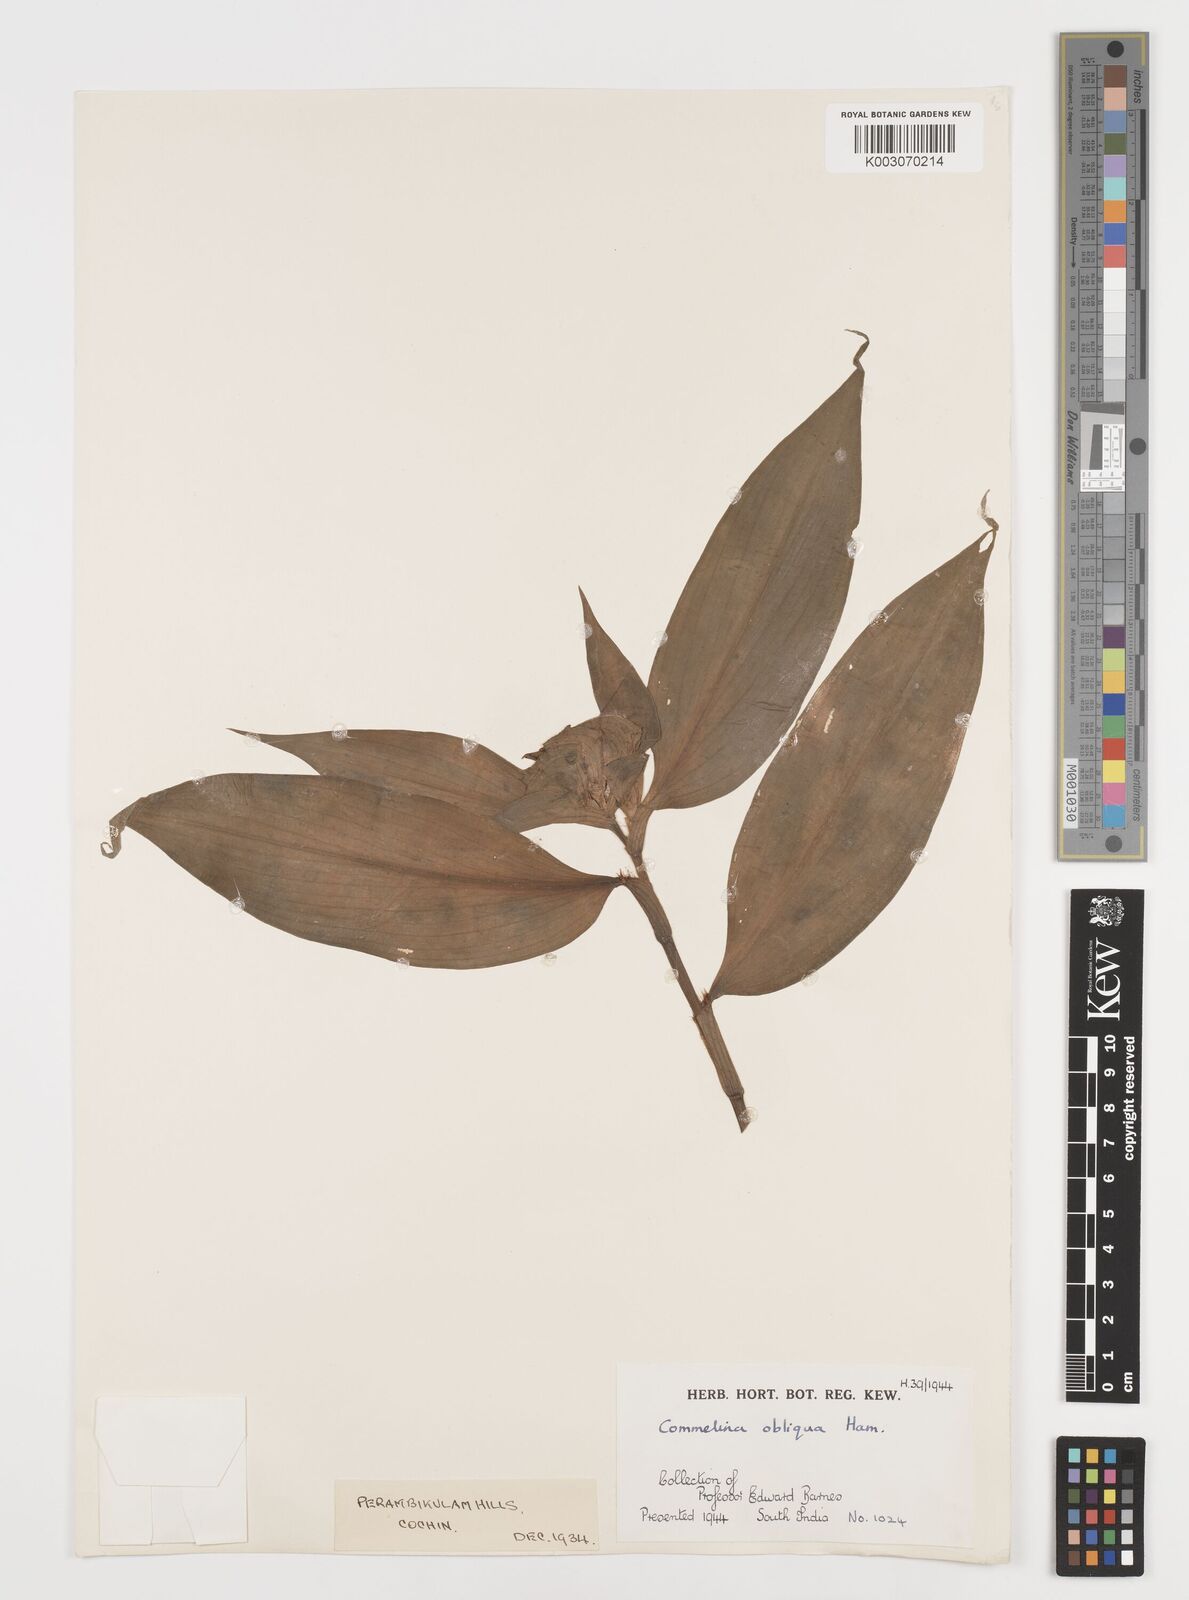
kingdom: Plantae
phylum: Tracheophyta
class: Liliopsida
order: Commelinales
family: Commelinaceae
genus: Commelina
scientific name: Commelina paludosa
